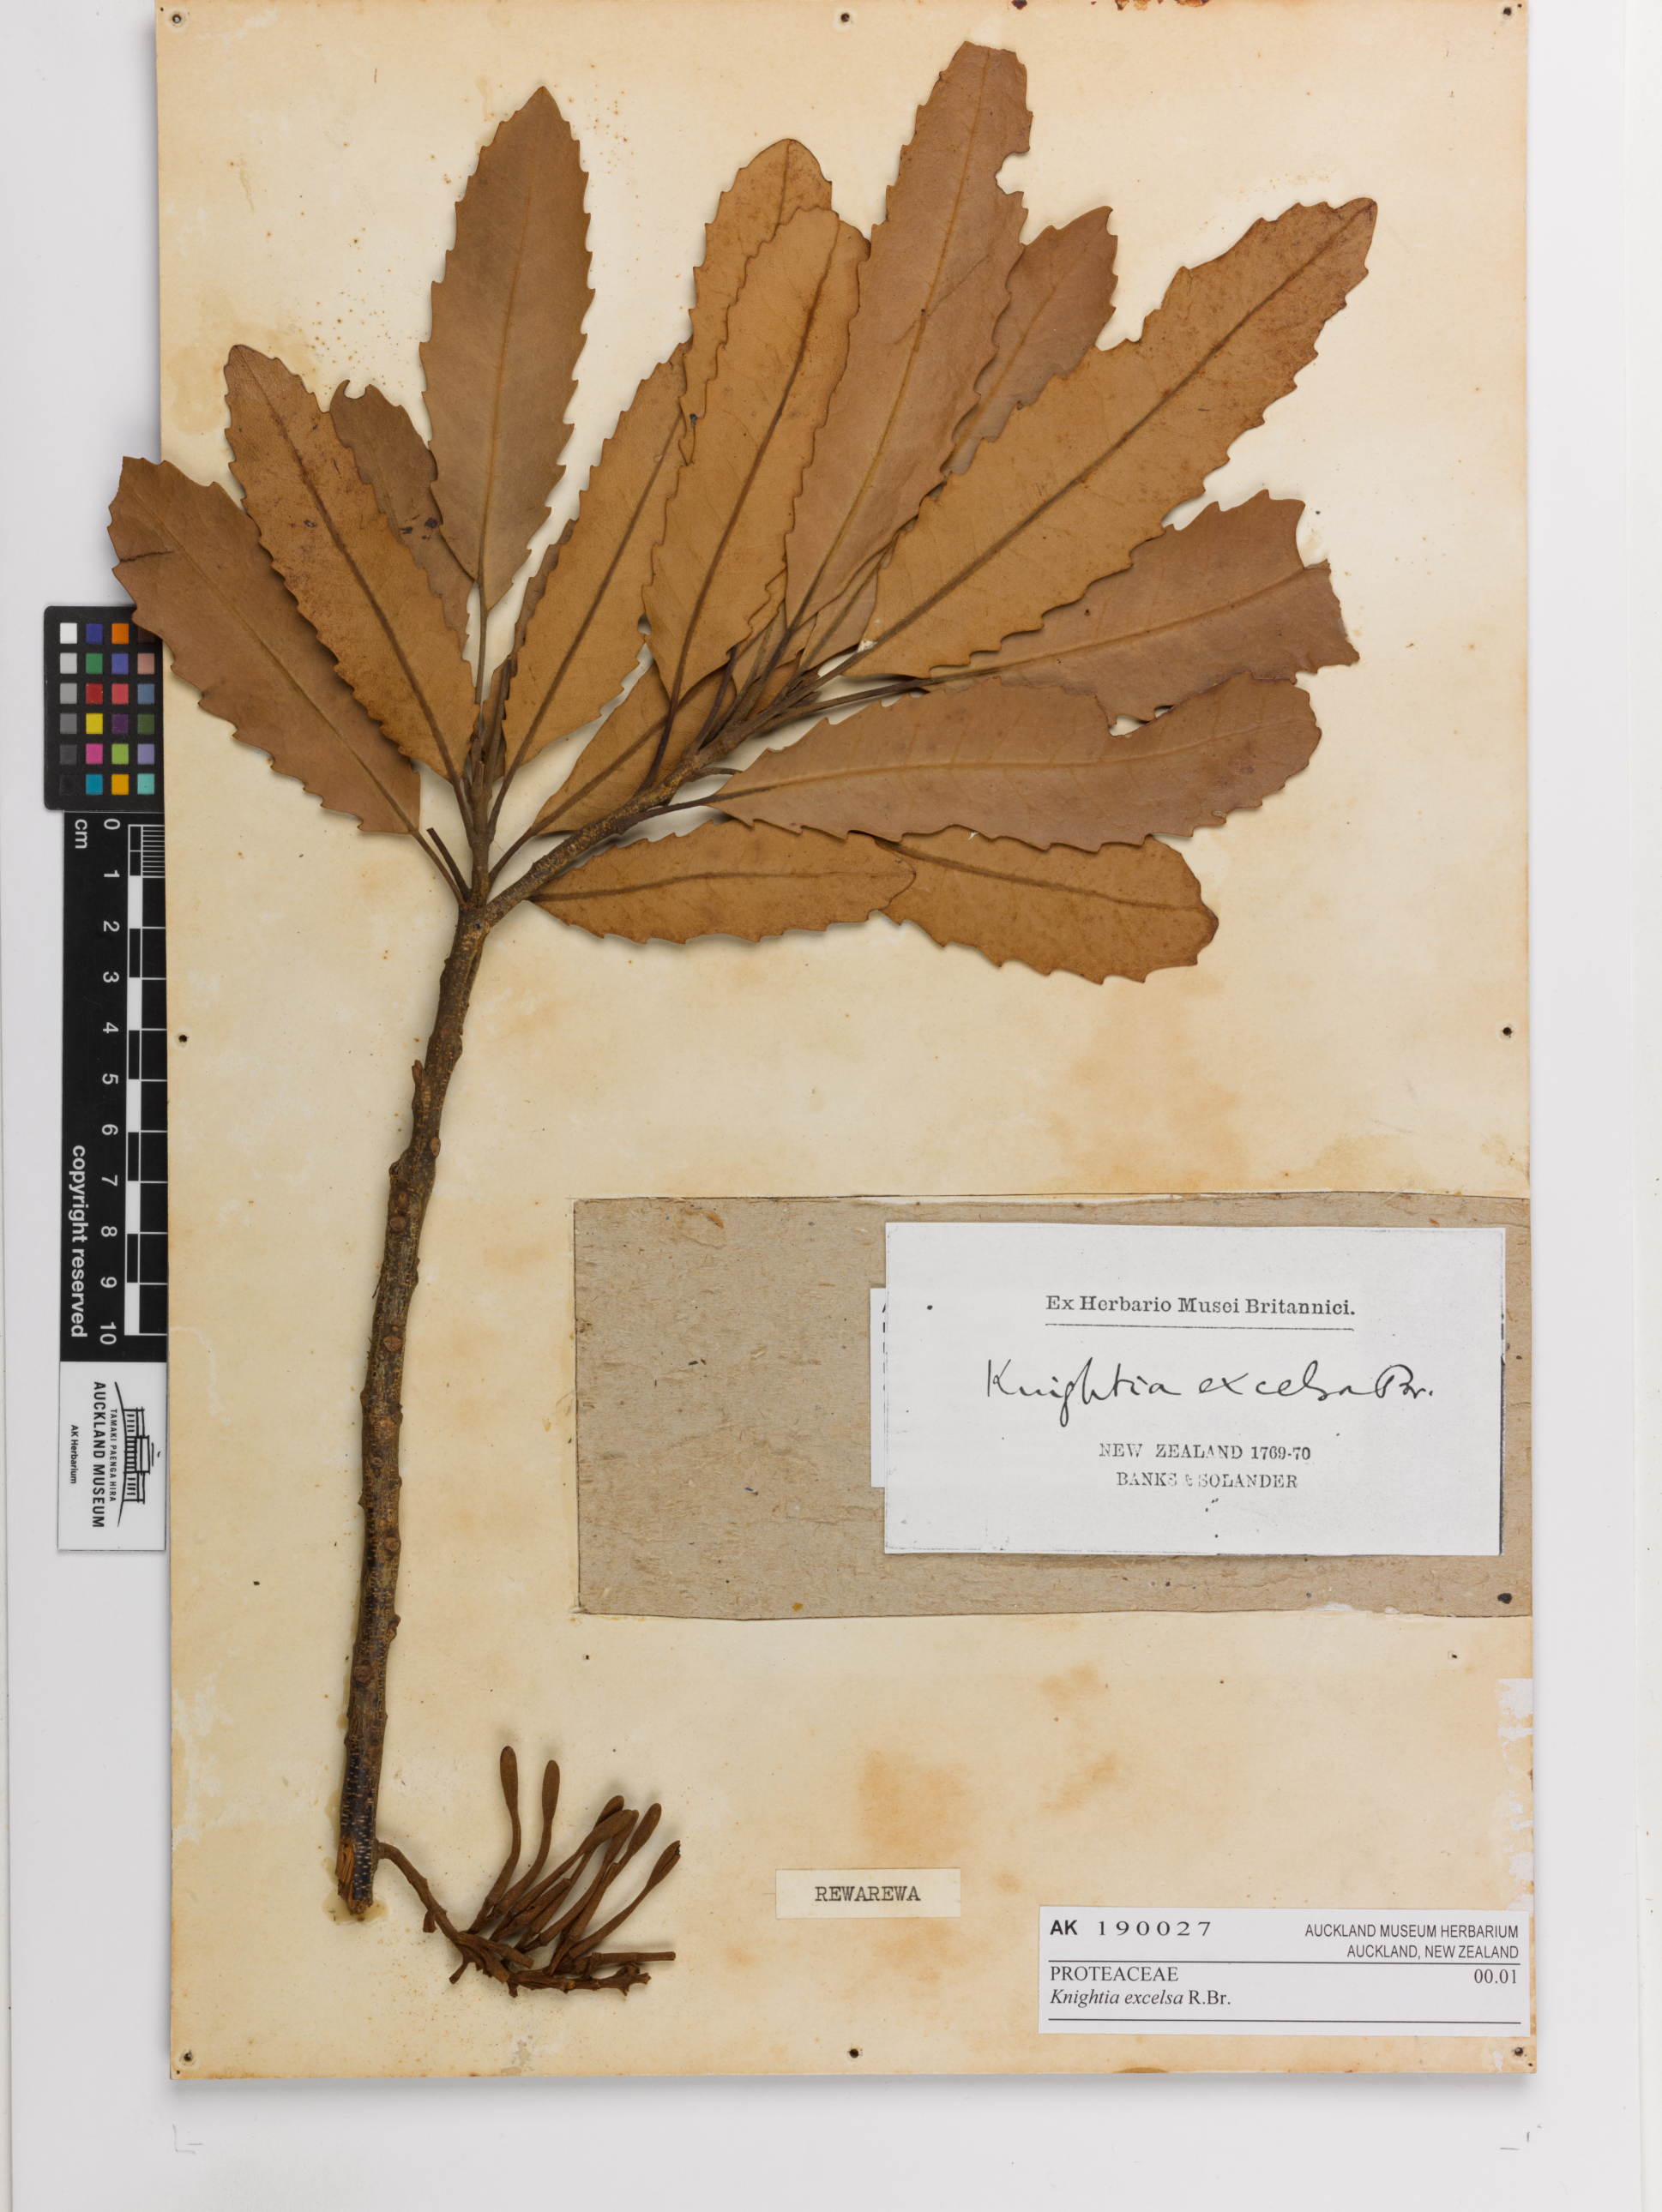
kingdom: Plantae
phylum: Tracheophyta
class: Magnoliopsida
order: Proteales
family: Proteaceae
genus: Knightia
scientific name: Knightia excelsa
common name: New zealand-honeysuckle
